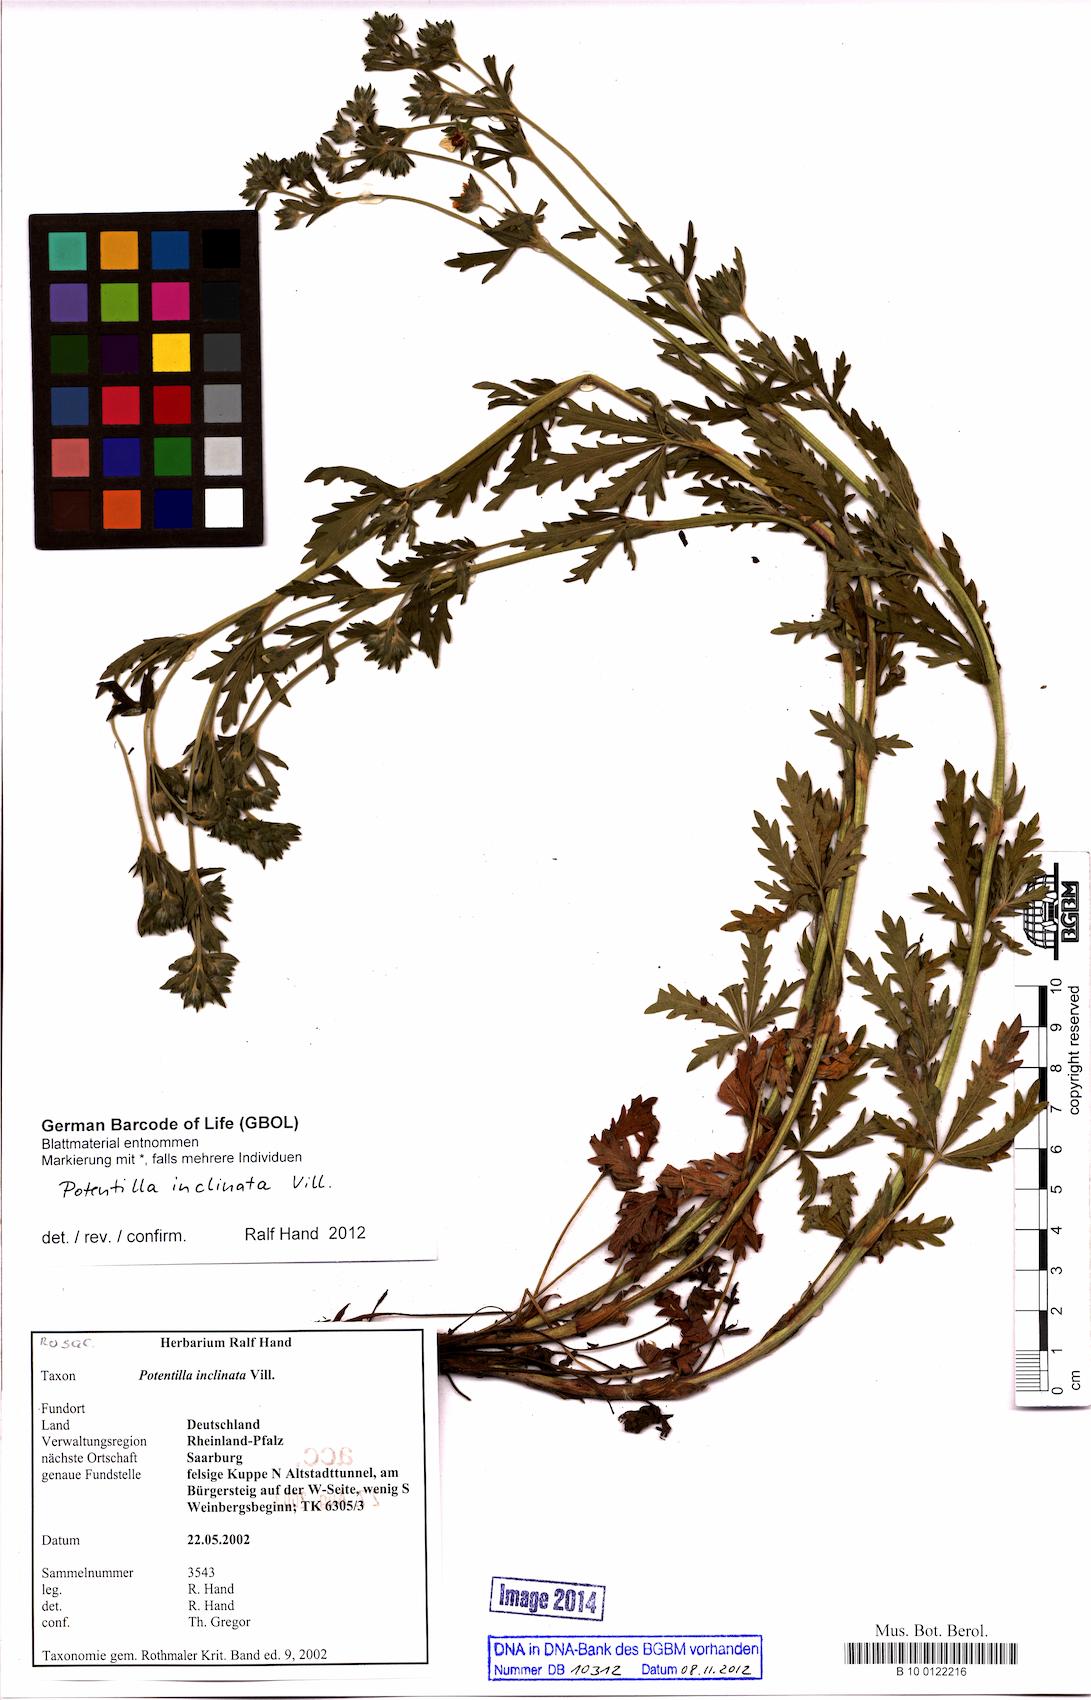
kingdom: Plantae
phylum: Tracheophyta
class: Magnoliopsida
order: Rosales
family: Rosaceae
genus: Potentilla
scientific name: Potentilla inclinata
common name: Grey cinquefoil
